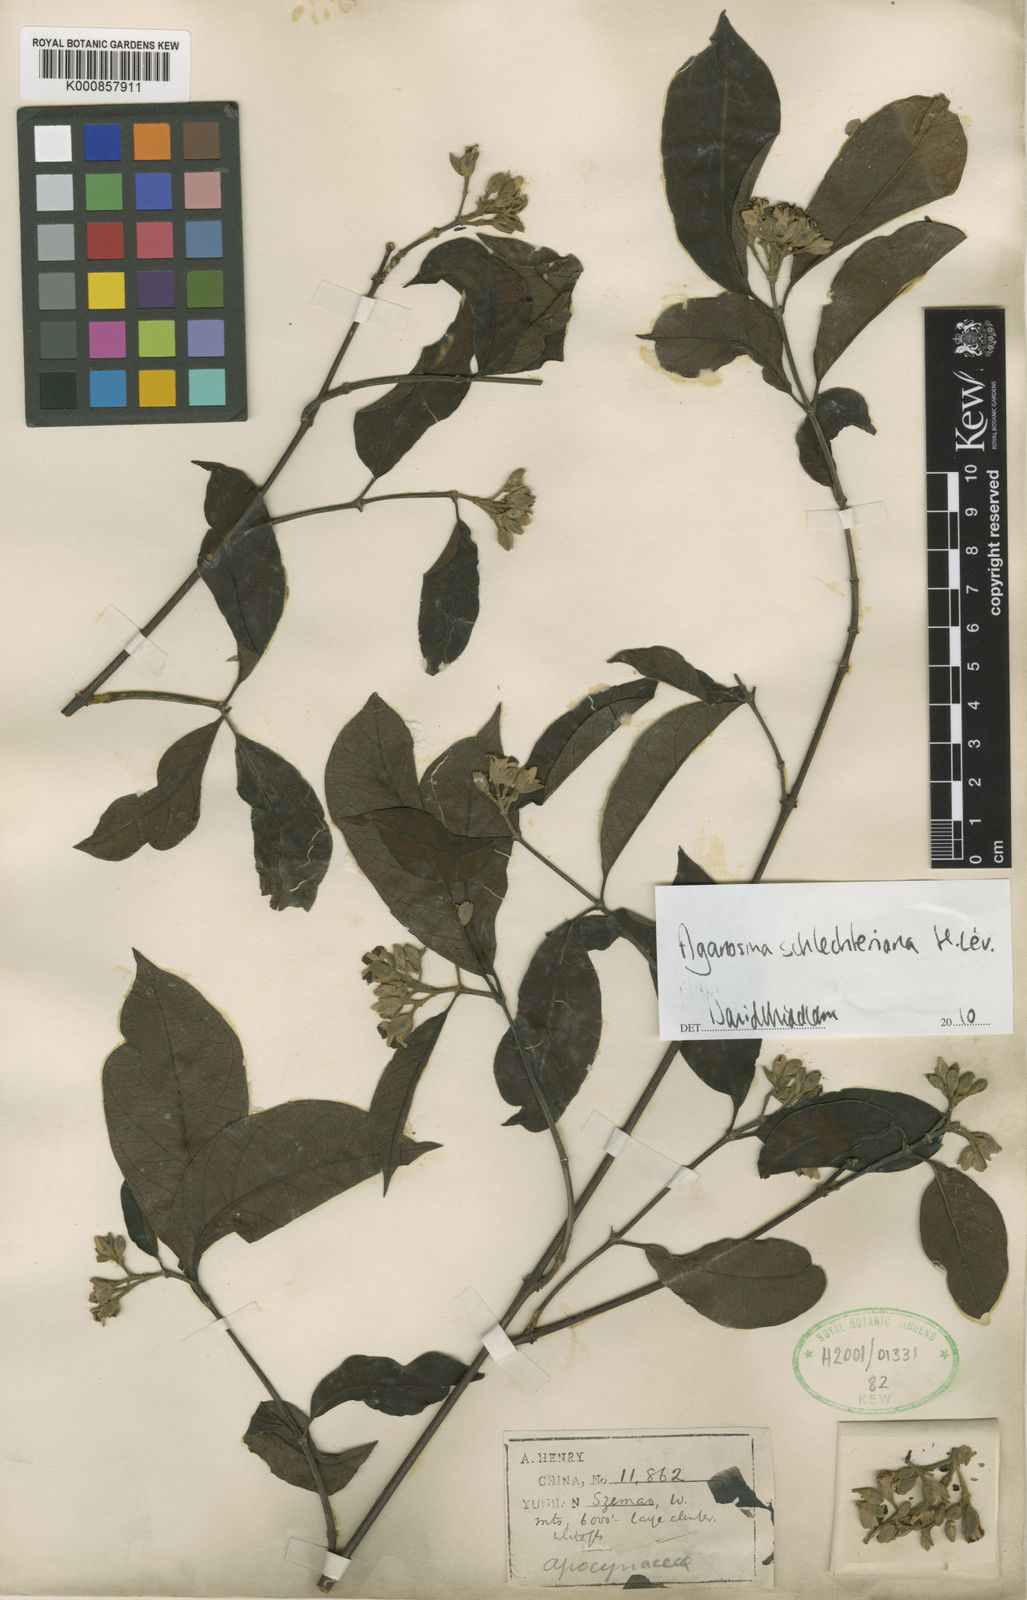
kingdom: Plantae
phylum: Tracheophyta
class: Magnoliopsida
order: Gentianales
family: Apocynaceae
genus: Aganosma
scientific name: Aganosma
